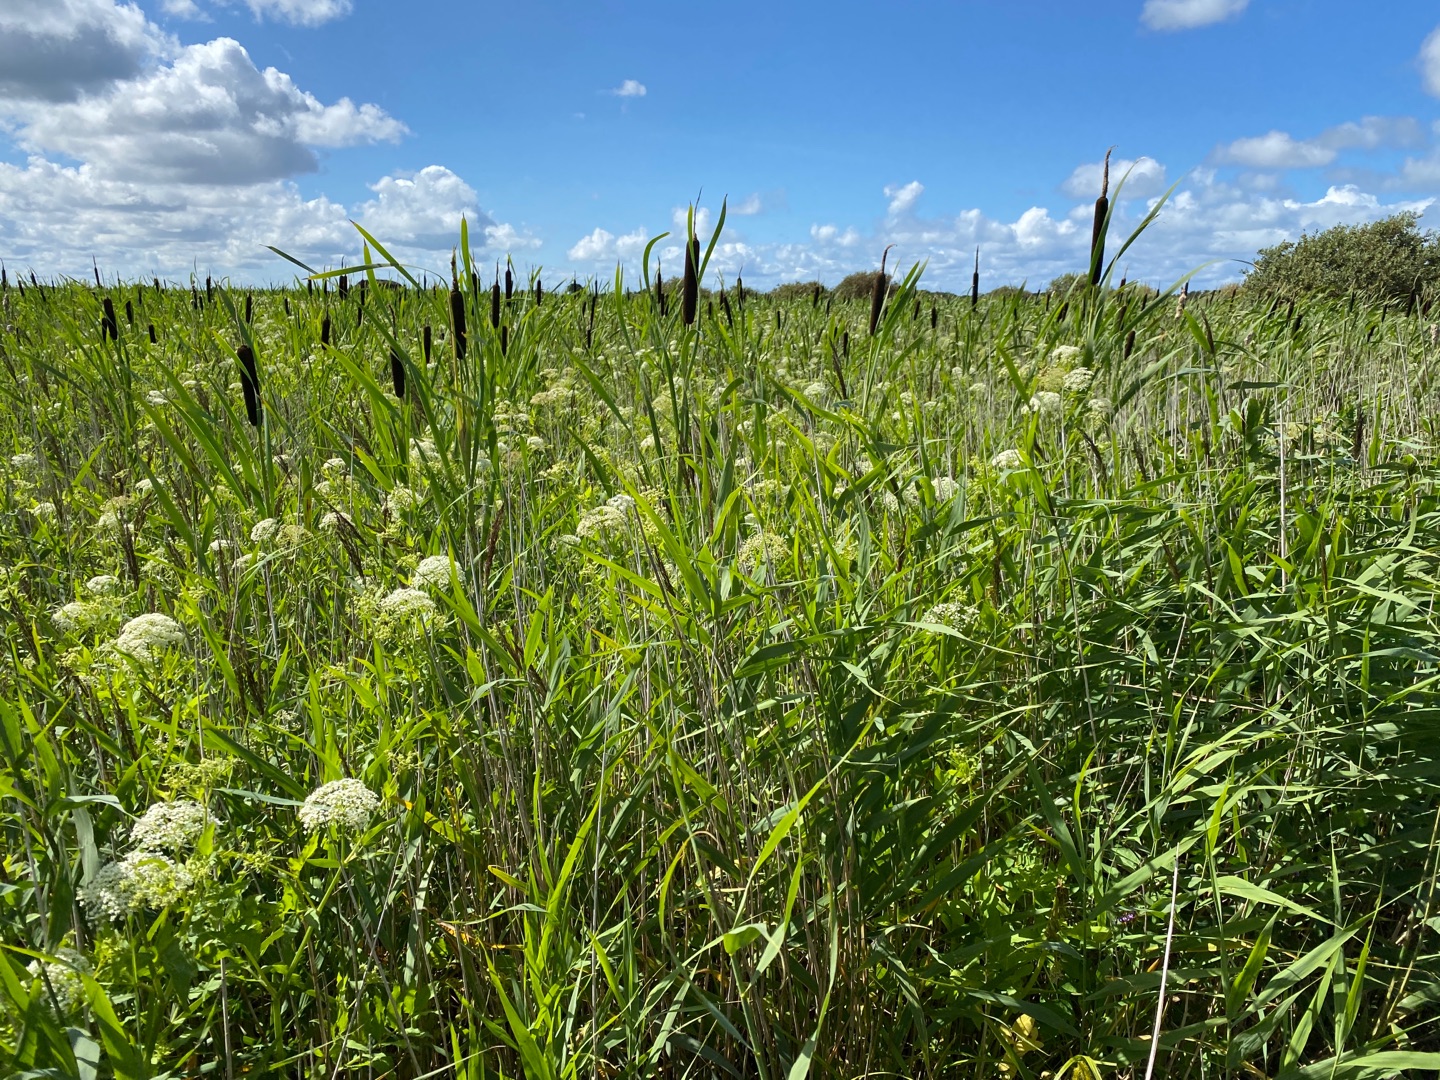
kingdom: Plantae
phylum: Tracheophyta
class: Liliopsida
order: Poales
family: Poaceae
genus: Phragmites
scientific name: Phragmites australis
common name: Tagrør
